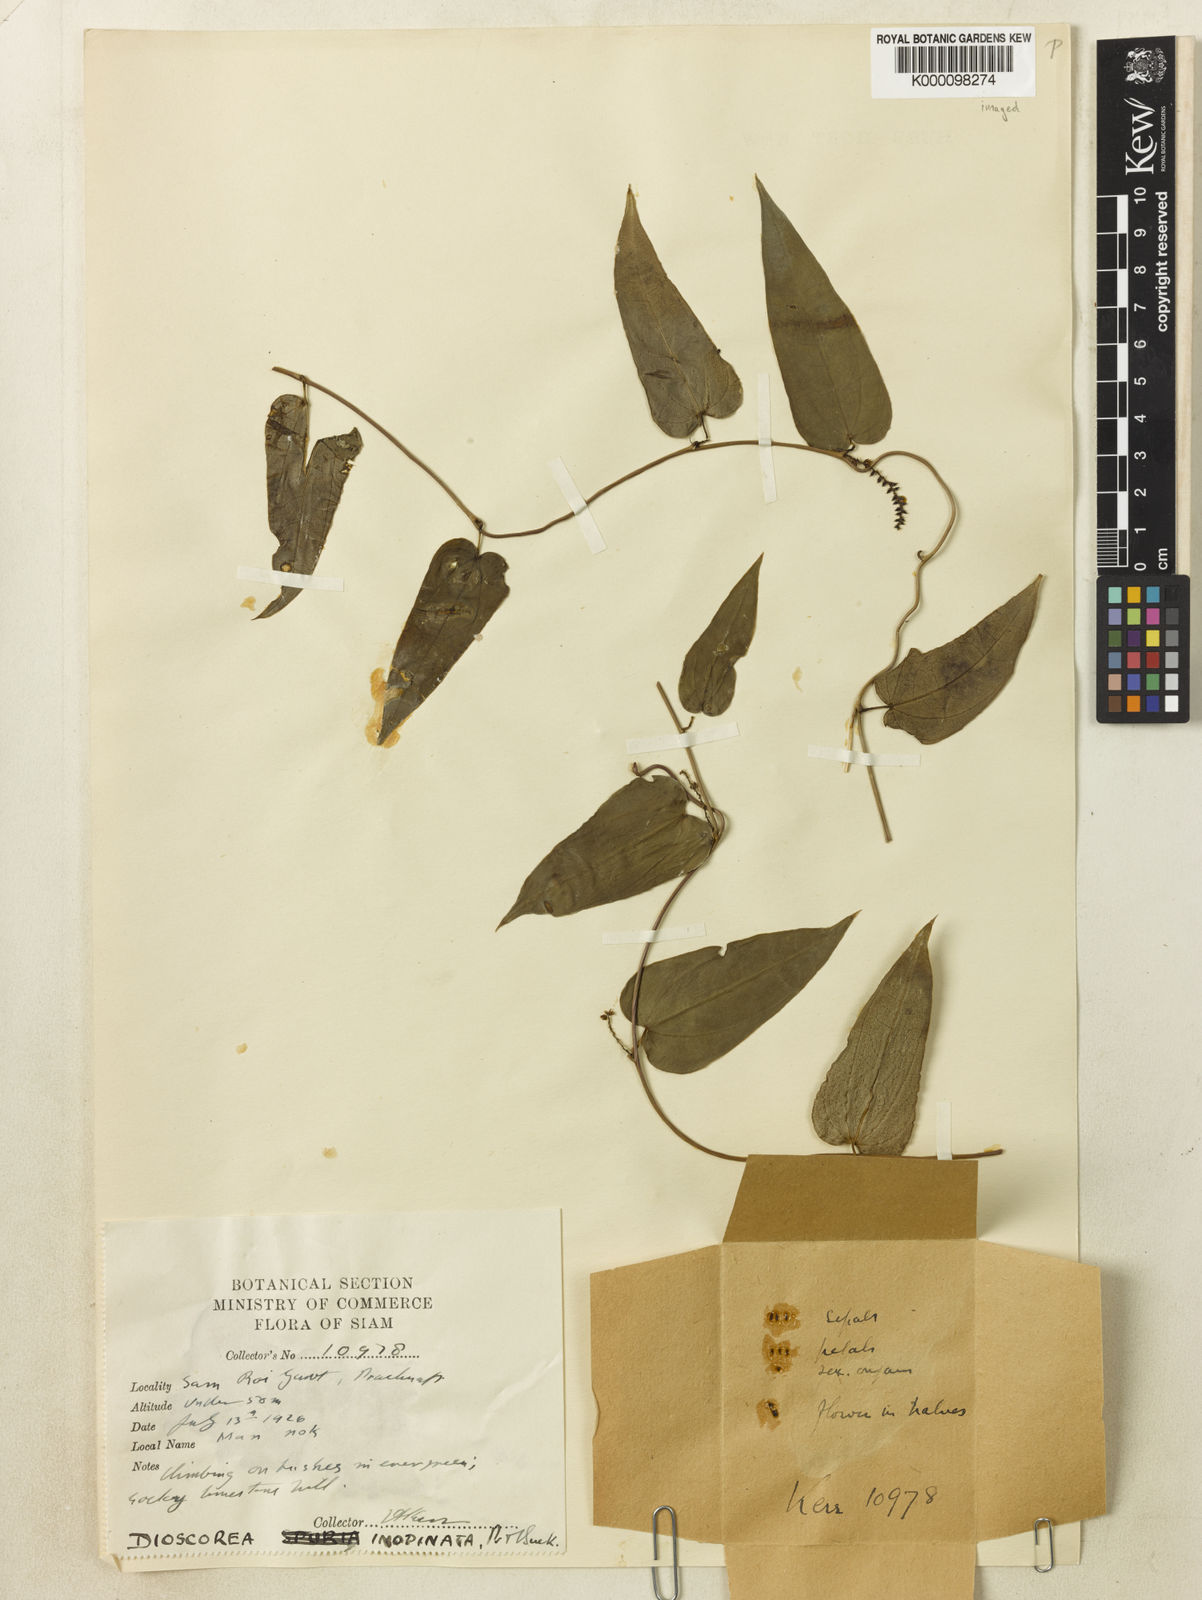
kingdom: Plantae
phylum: Tracheophyta
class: Liliopsida
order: Dioscoreales
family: Dioscoreaceae
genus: Dioscorea
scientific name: Dioscorea inopinata
